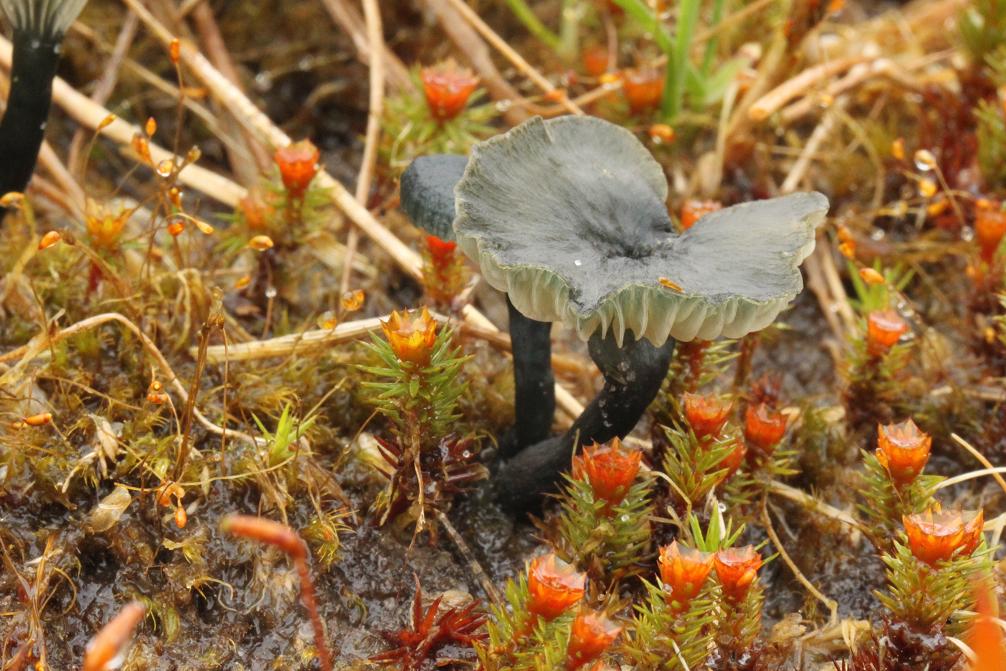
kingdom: Fungi
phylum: Basidiomycota
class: Agaricomycetes
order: Agaricales
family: Hygrophoraceae
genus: Arrhenia
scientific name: Arrhenia chlorocyanea
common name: blågrøn fontænehat
